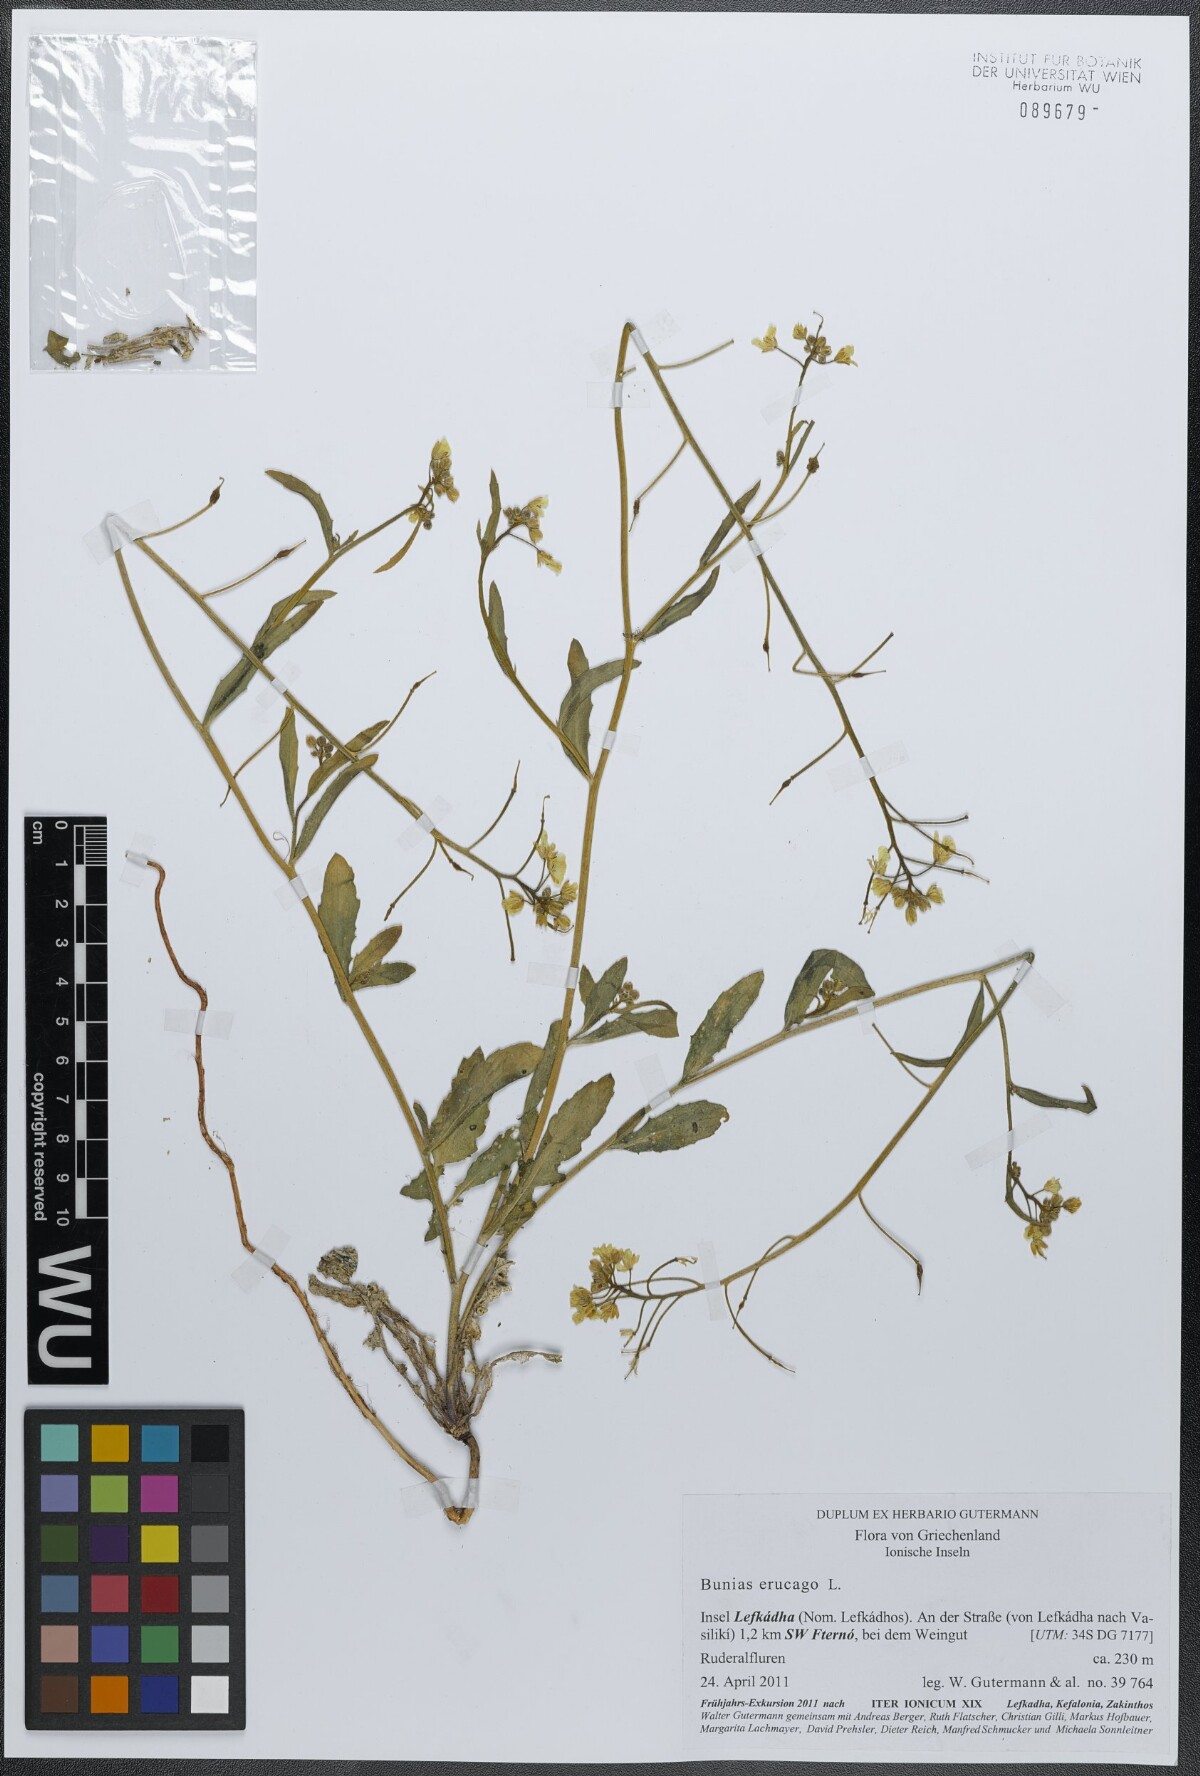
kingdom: Plantae
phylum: Tracheophyta
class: Magnoliopsida
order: Brassicales
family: Brassicaceae
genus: Bunias
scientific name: Bunias erucago
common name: Southern warty-cabbage
